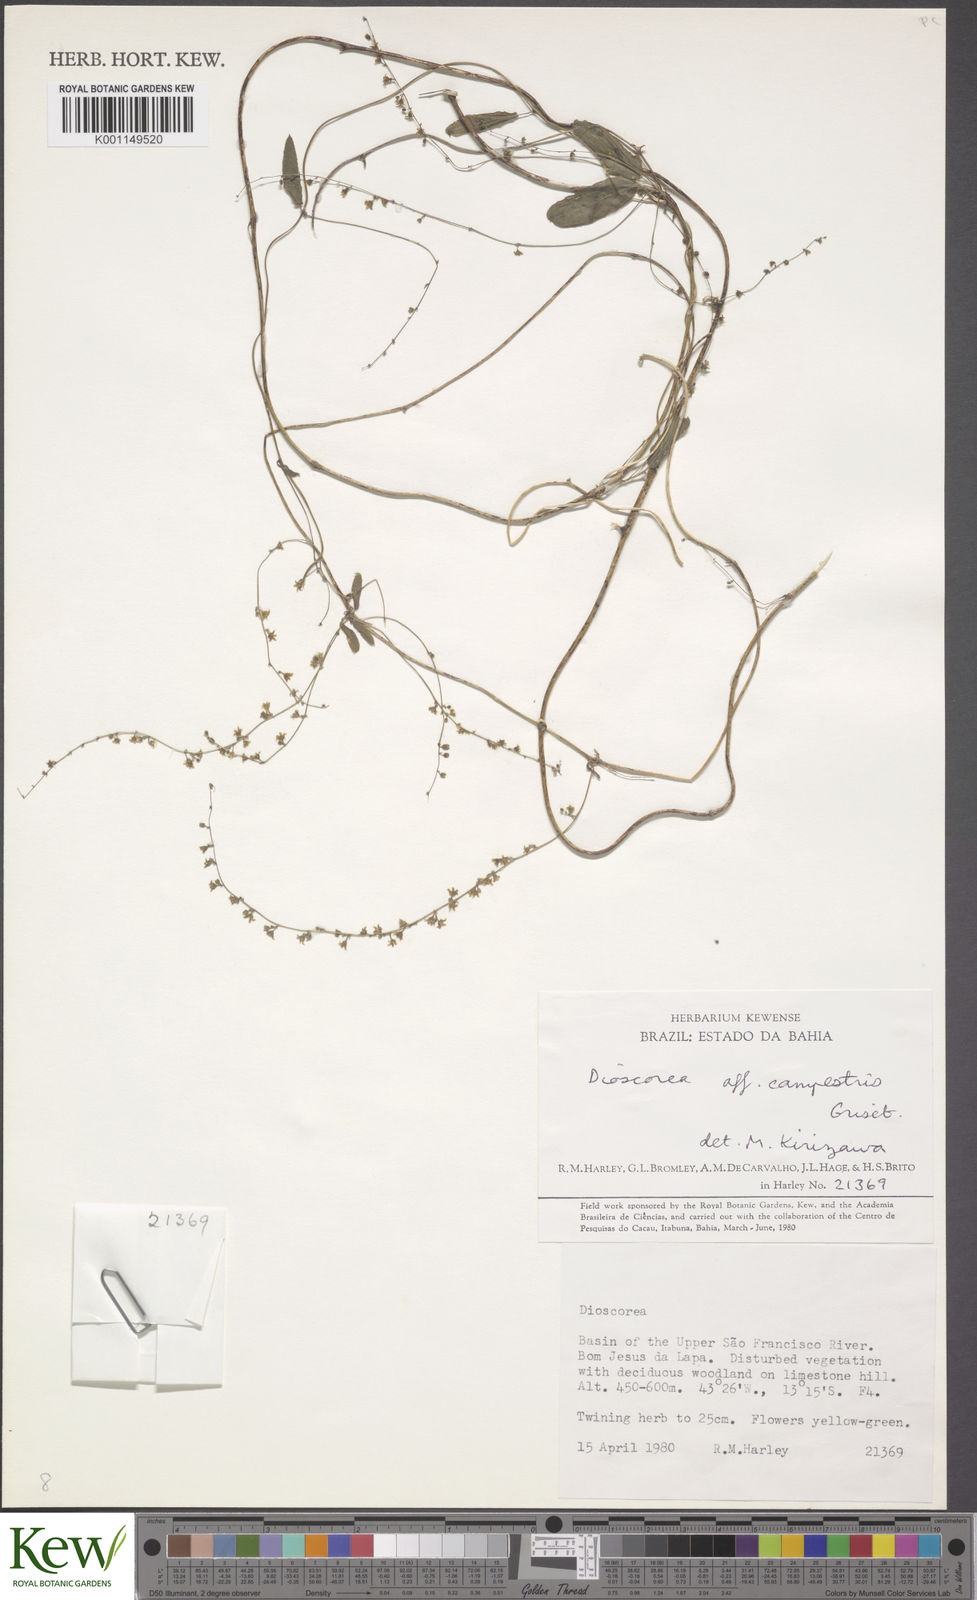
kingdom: Plantae
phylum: Tracheophyta
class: Liliopsida
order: Dioscoreales
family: Dioscoreaceae
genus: Dioscorea
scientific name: Dioscorea campestris
